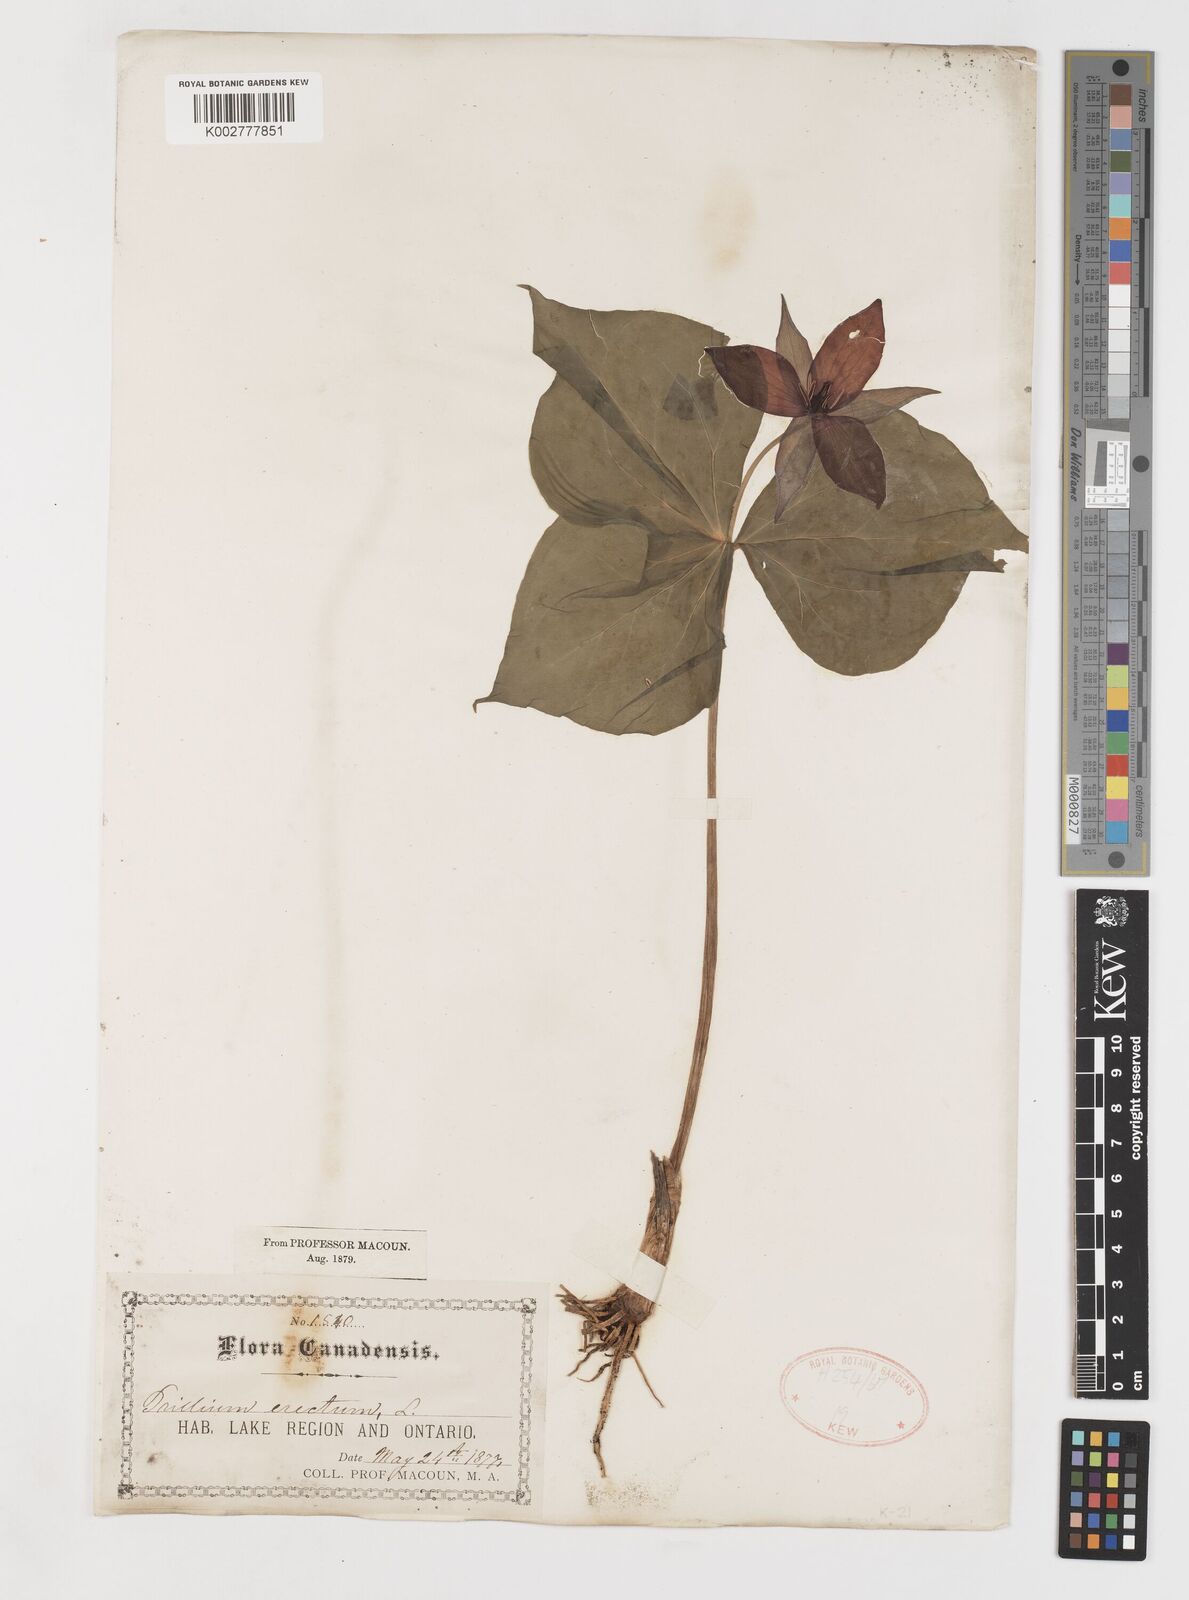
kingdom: Plantae
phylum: Tracheophyta
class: Liliopsida
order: Liliales
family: Melanthiaceae
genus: Trillium
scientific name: Trillium erectum
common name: Purple trillium
